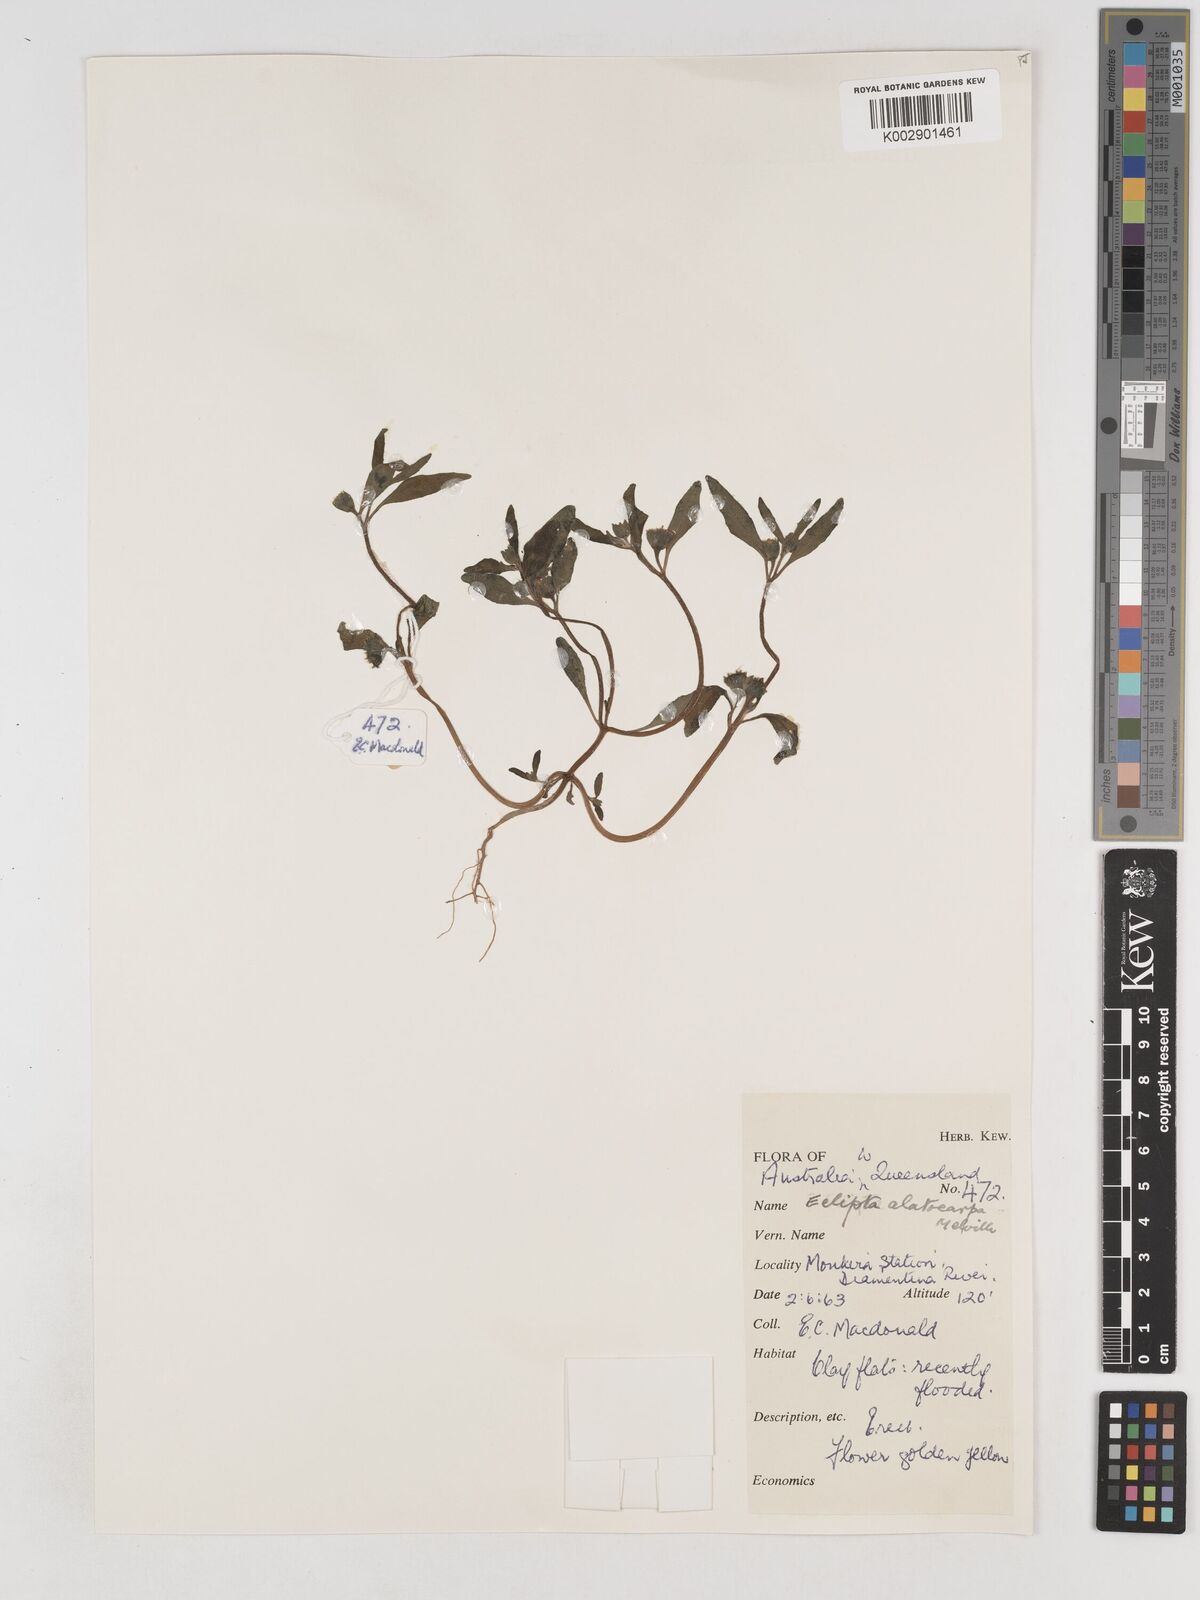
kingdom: Plantae
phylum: Tracheophyta
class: Magnoliopsida
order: Asterales
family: Asteraceae
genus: Eclipta
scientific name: Eclipta alatocarpa
